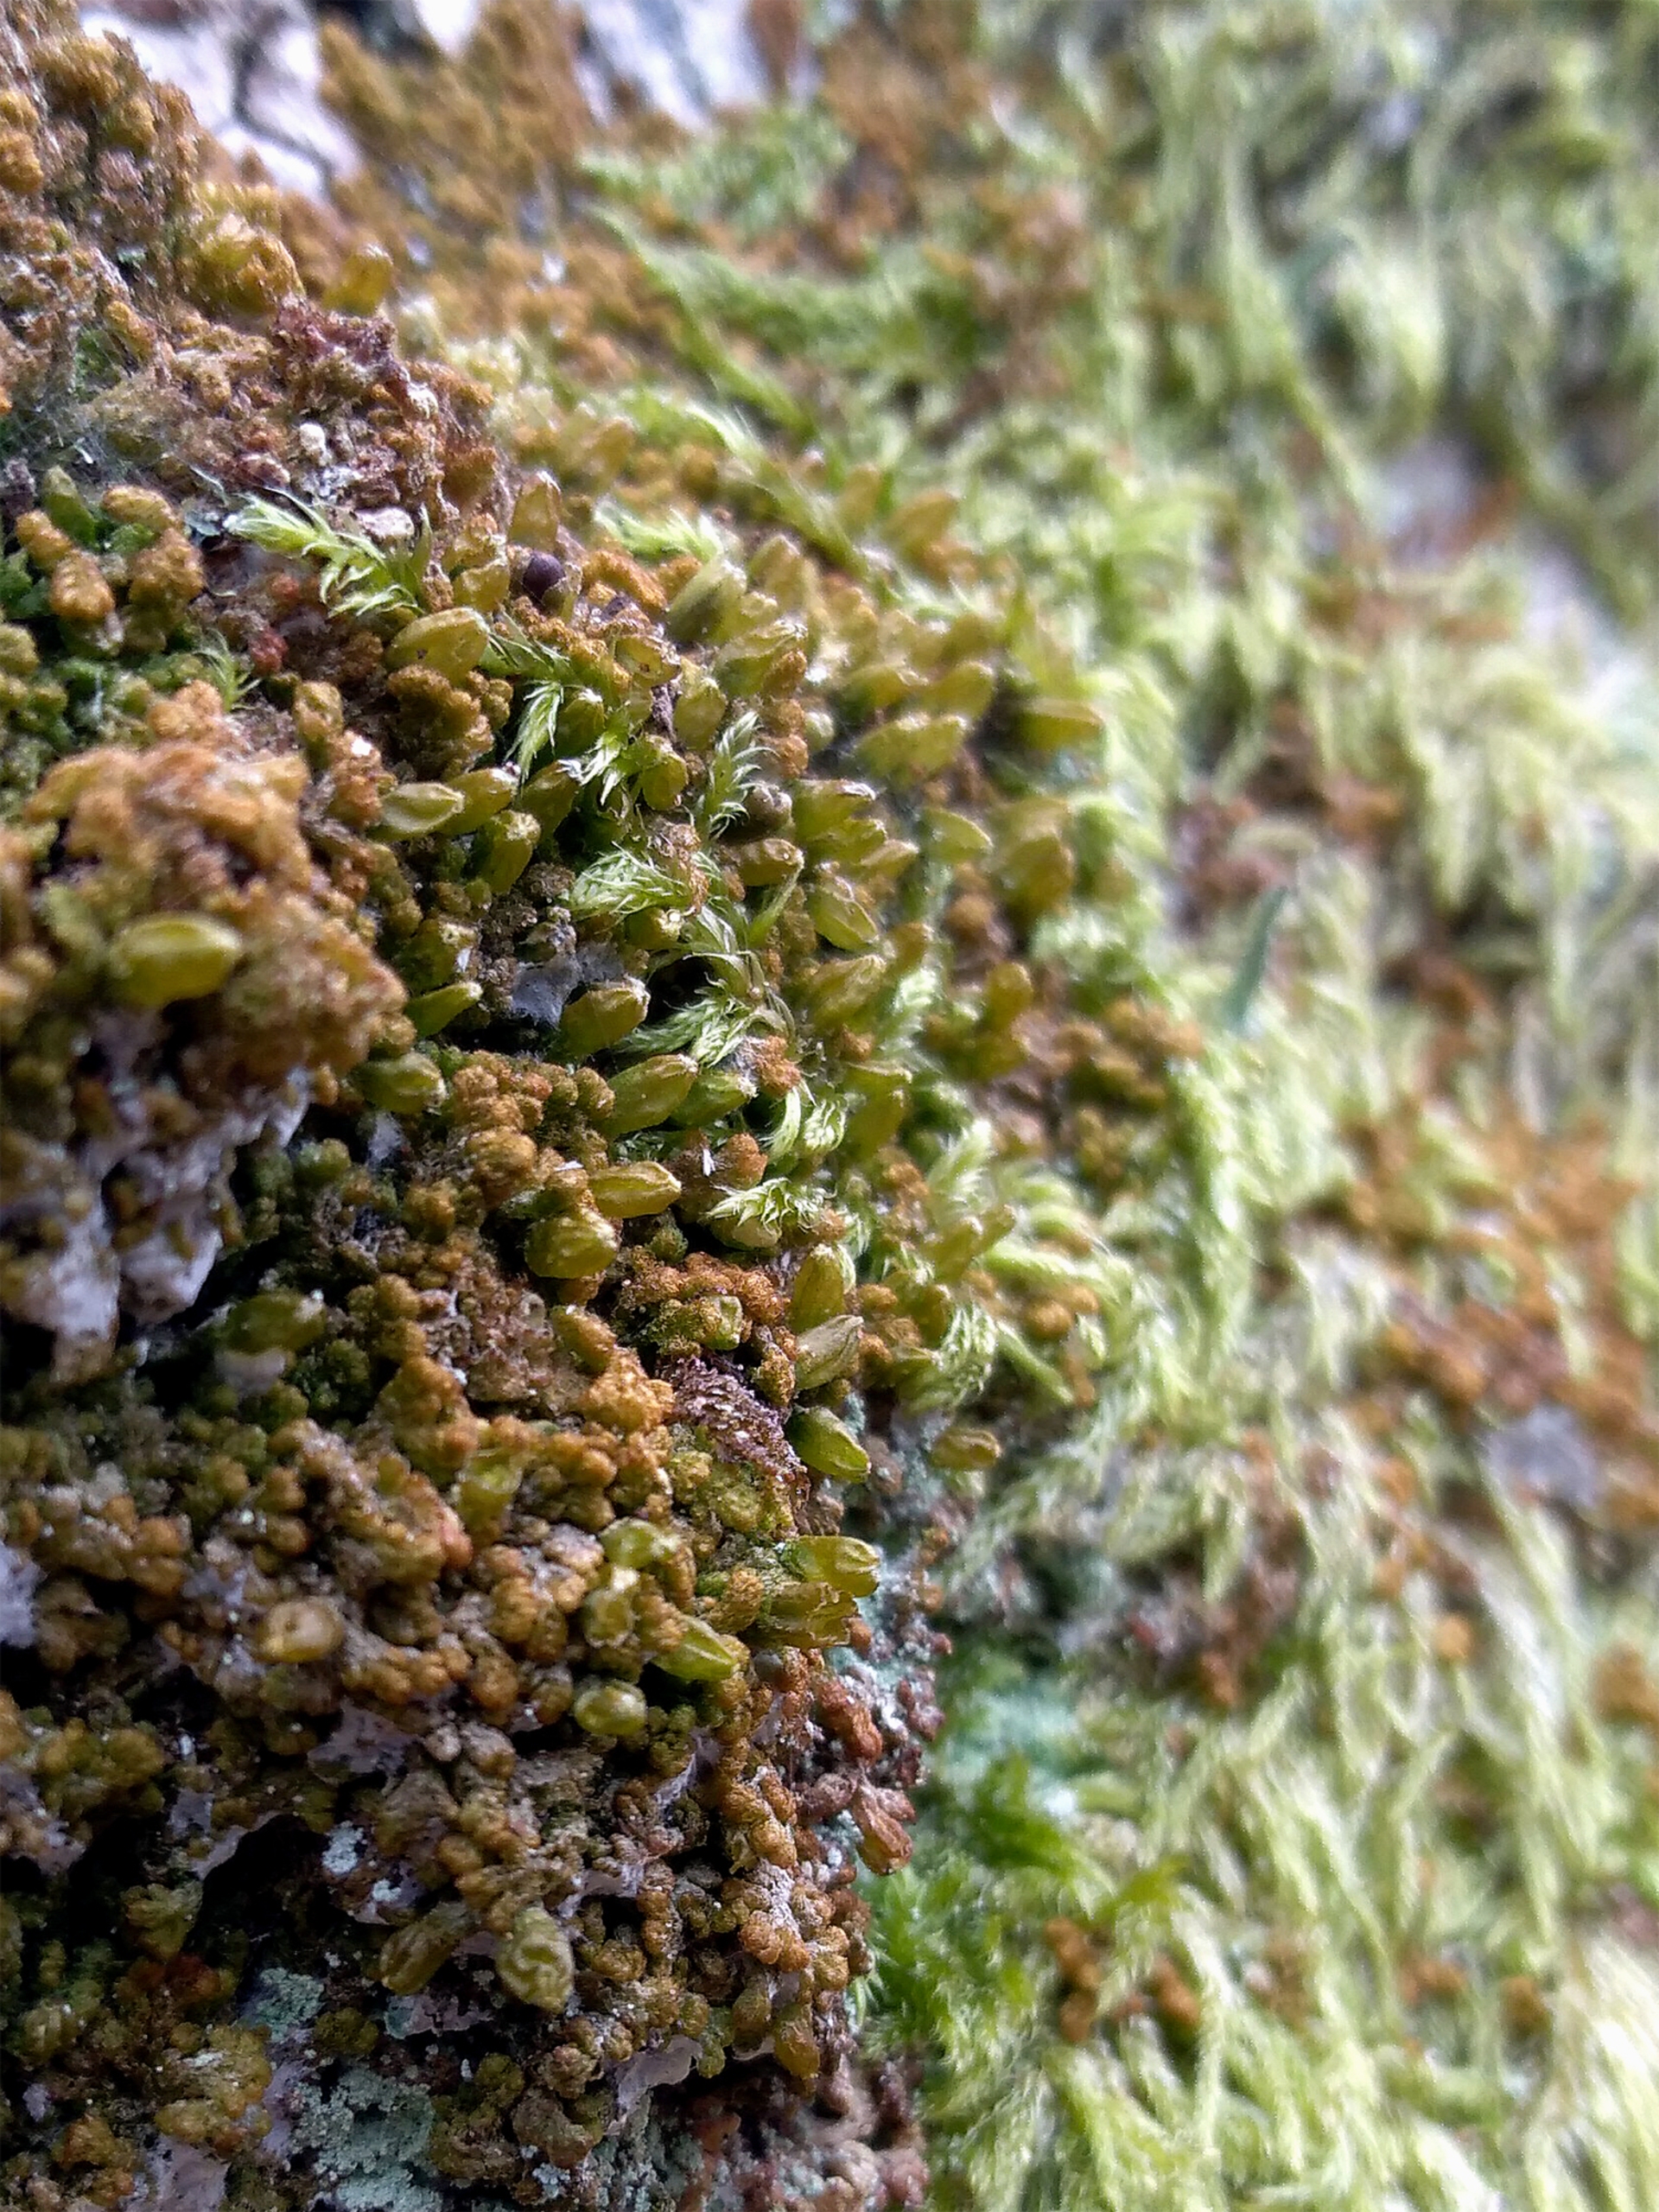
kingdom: Plantae
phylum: Marchantiophyta
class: Jungermanniopsida
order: Ptilidiales
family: Ptilidiaceae
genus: Ptilidium
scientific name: Ptilidium pulcherrimum
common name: Stub-frynsemos
